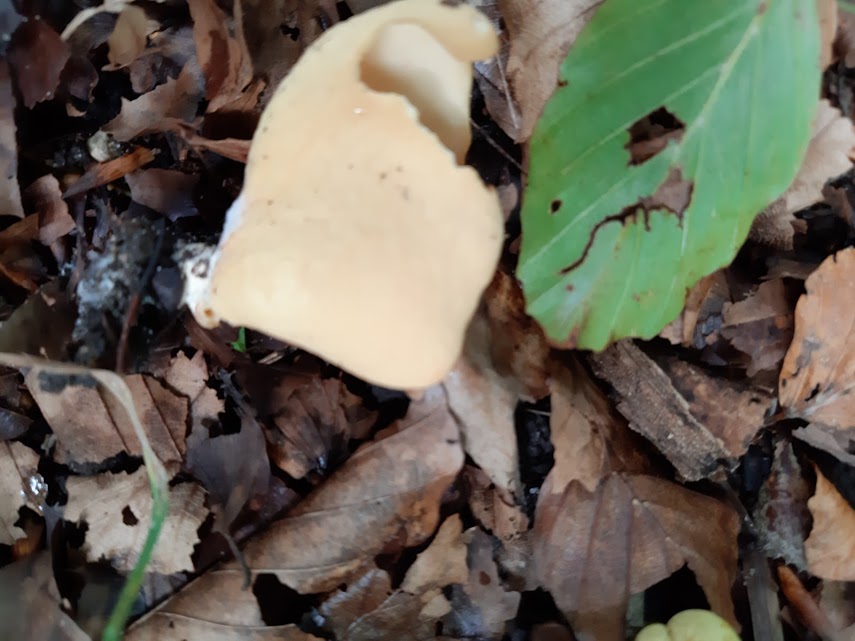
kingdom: Fungi
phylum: Ascomycota
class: Pezizomycetes
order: Pezizales
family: Otideaceae
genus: Otidea
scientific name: Otidea onotica
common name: æsel-ørebæger
